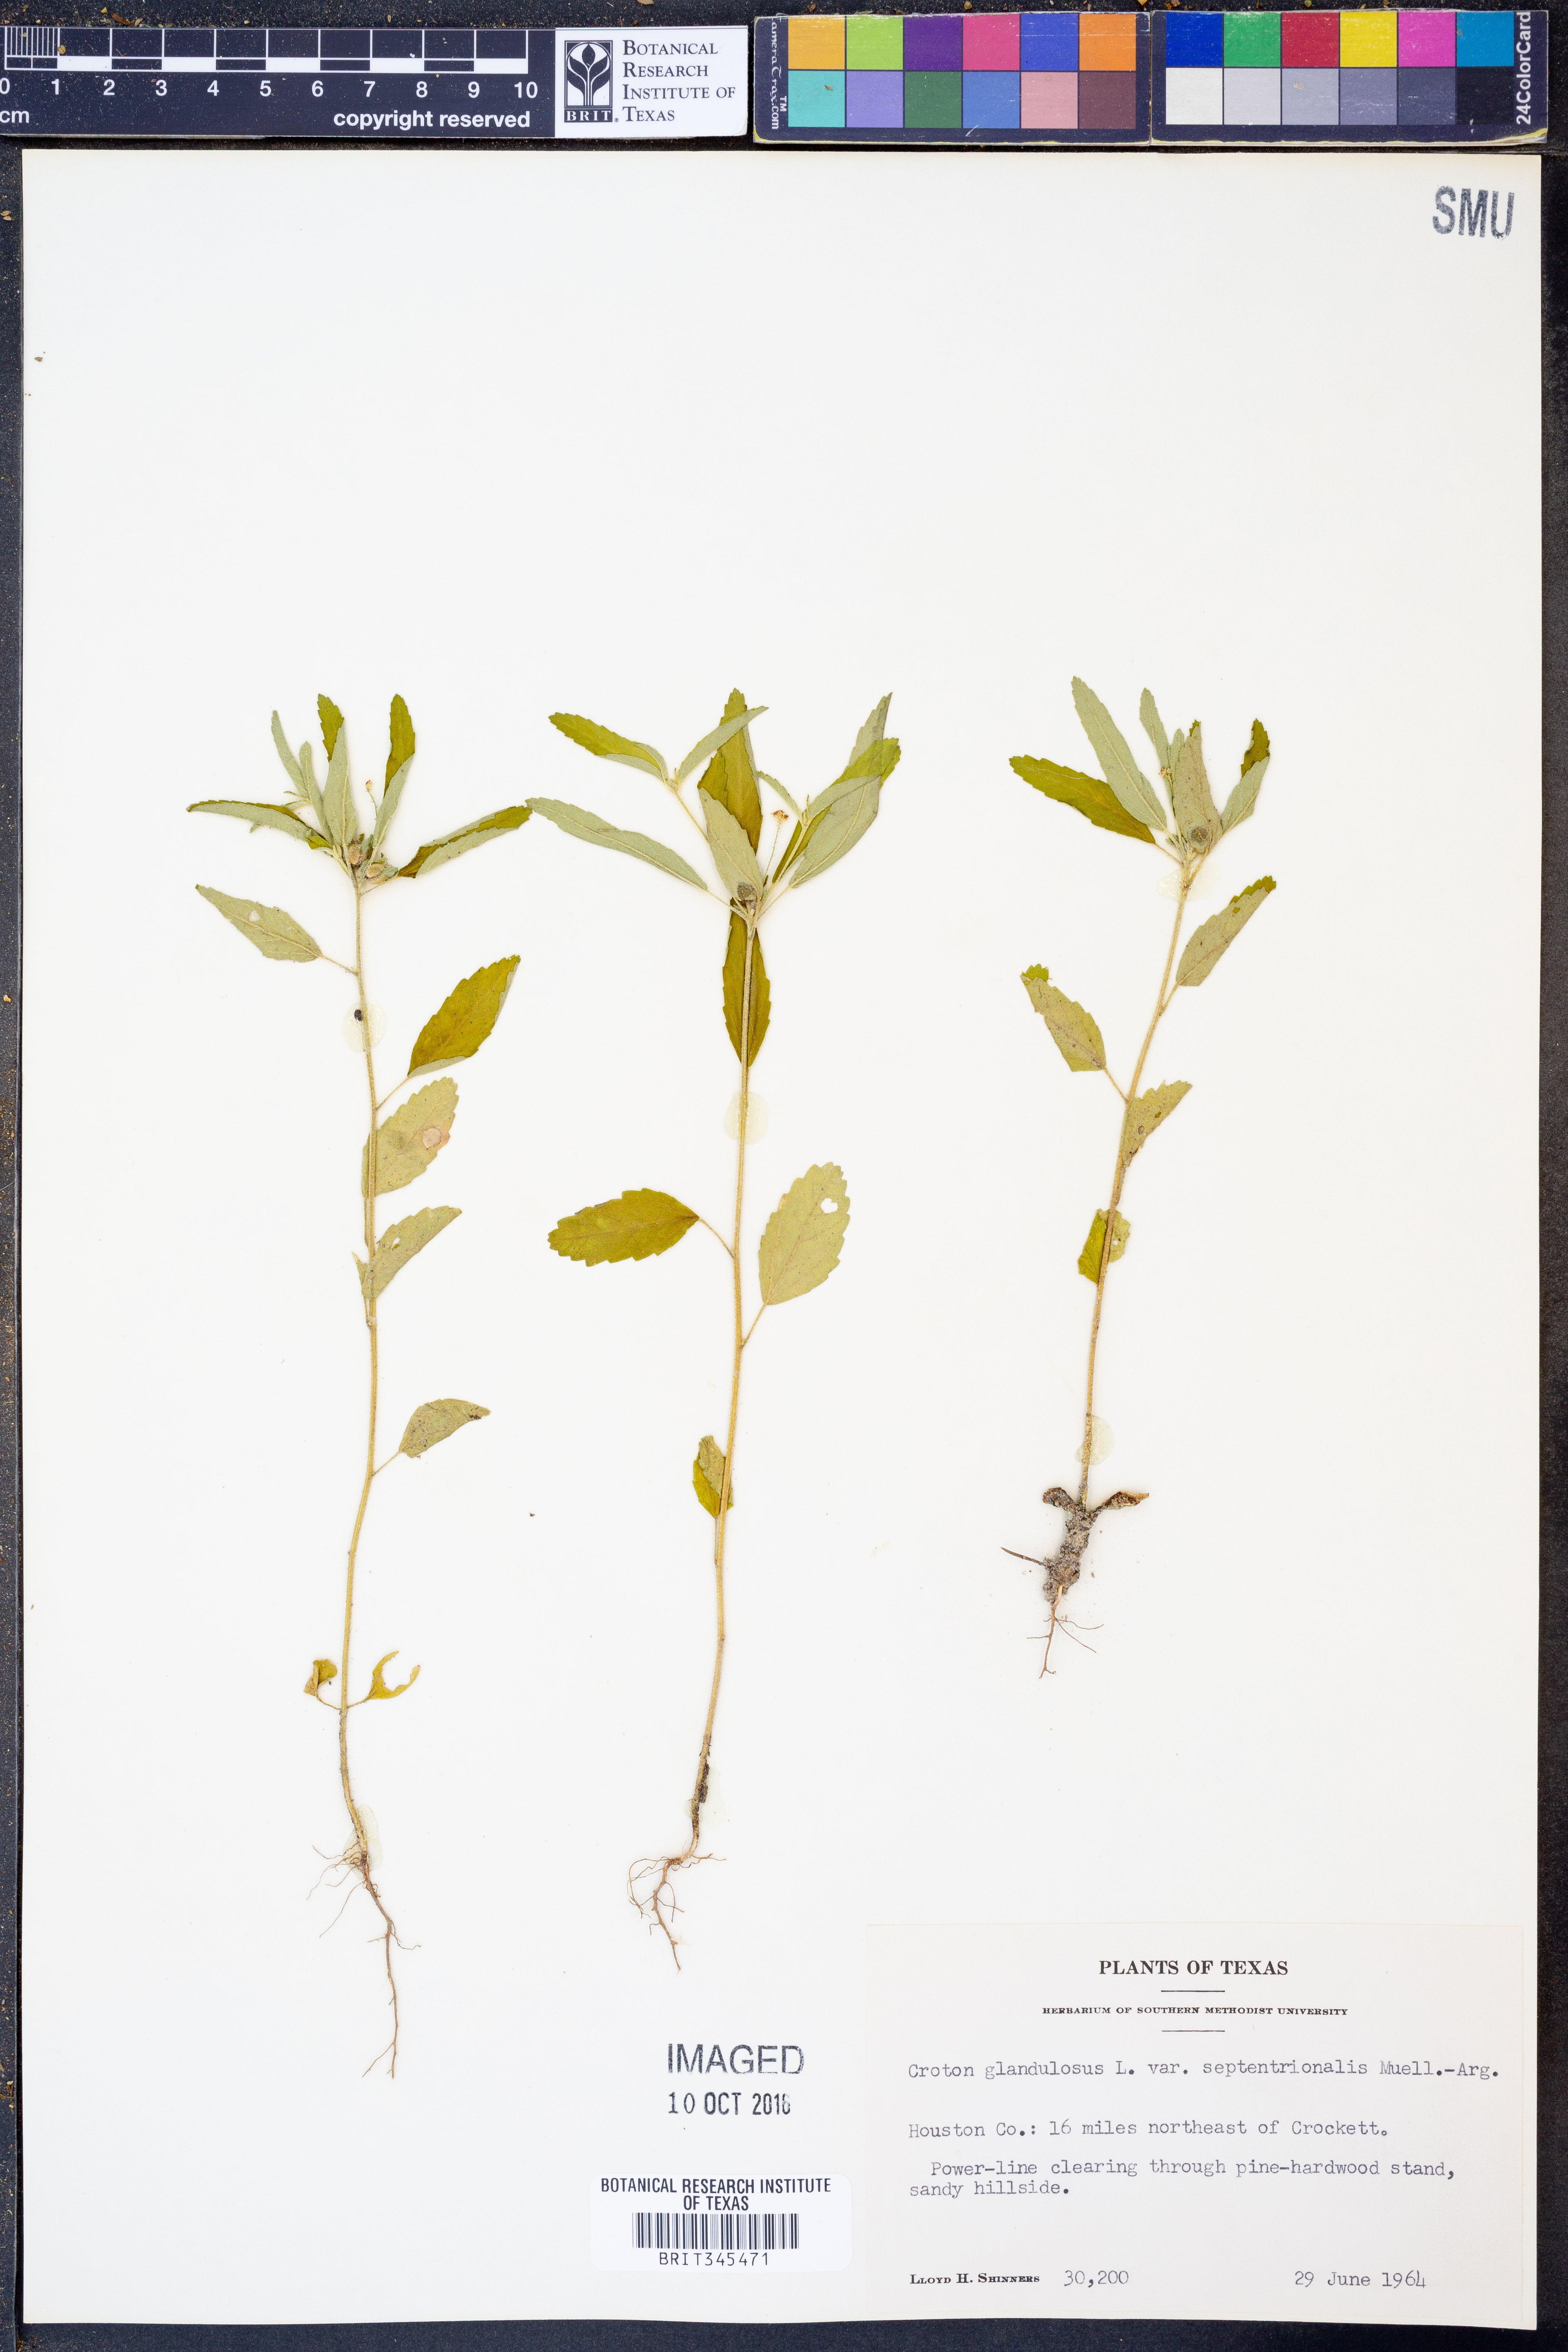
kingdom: Plantae
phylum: Tracheophyta
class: Magnoliopsida
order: Malpighiales
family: Euphorbiaceae
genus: Croton
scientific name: Croton glandulosus
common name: Tropic croton
